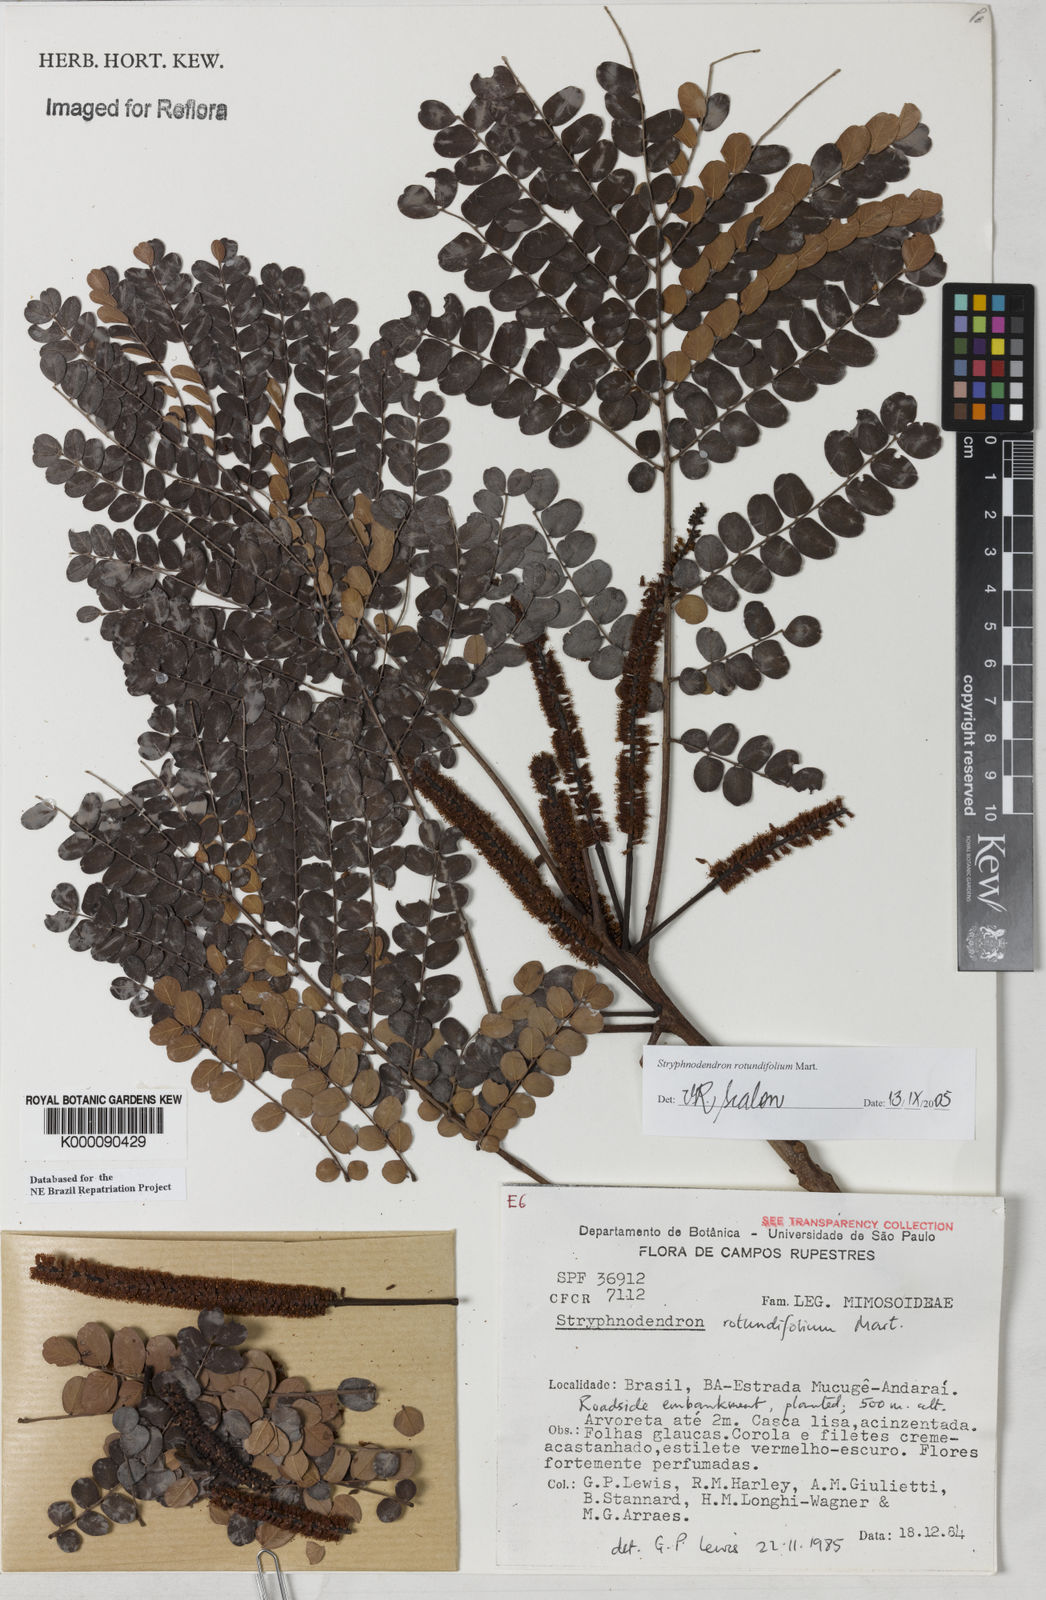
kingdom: Plantae
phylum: Tracheophyta
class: Magnoliopsida
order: Fabales
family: Fabaceae
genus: Stryphnodendron
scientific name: Stryphnodendron rotundifolium
